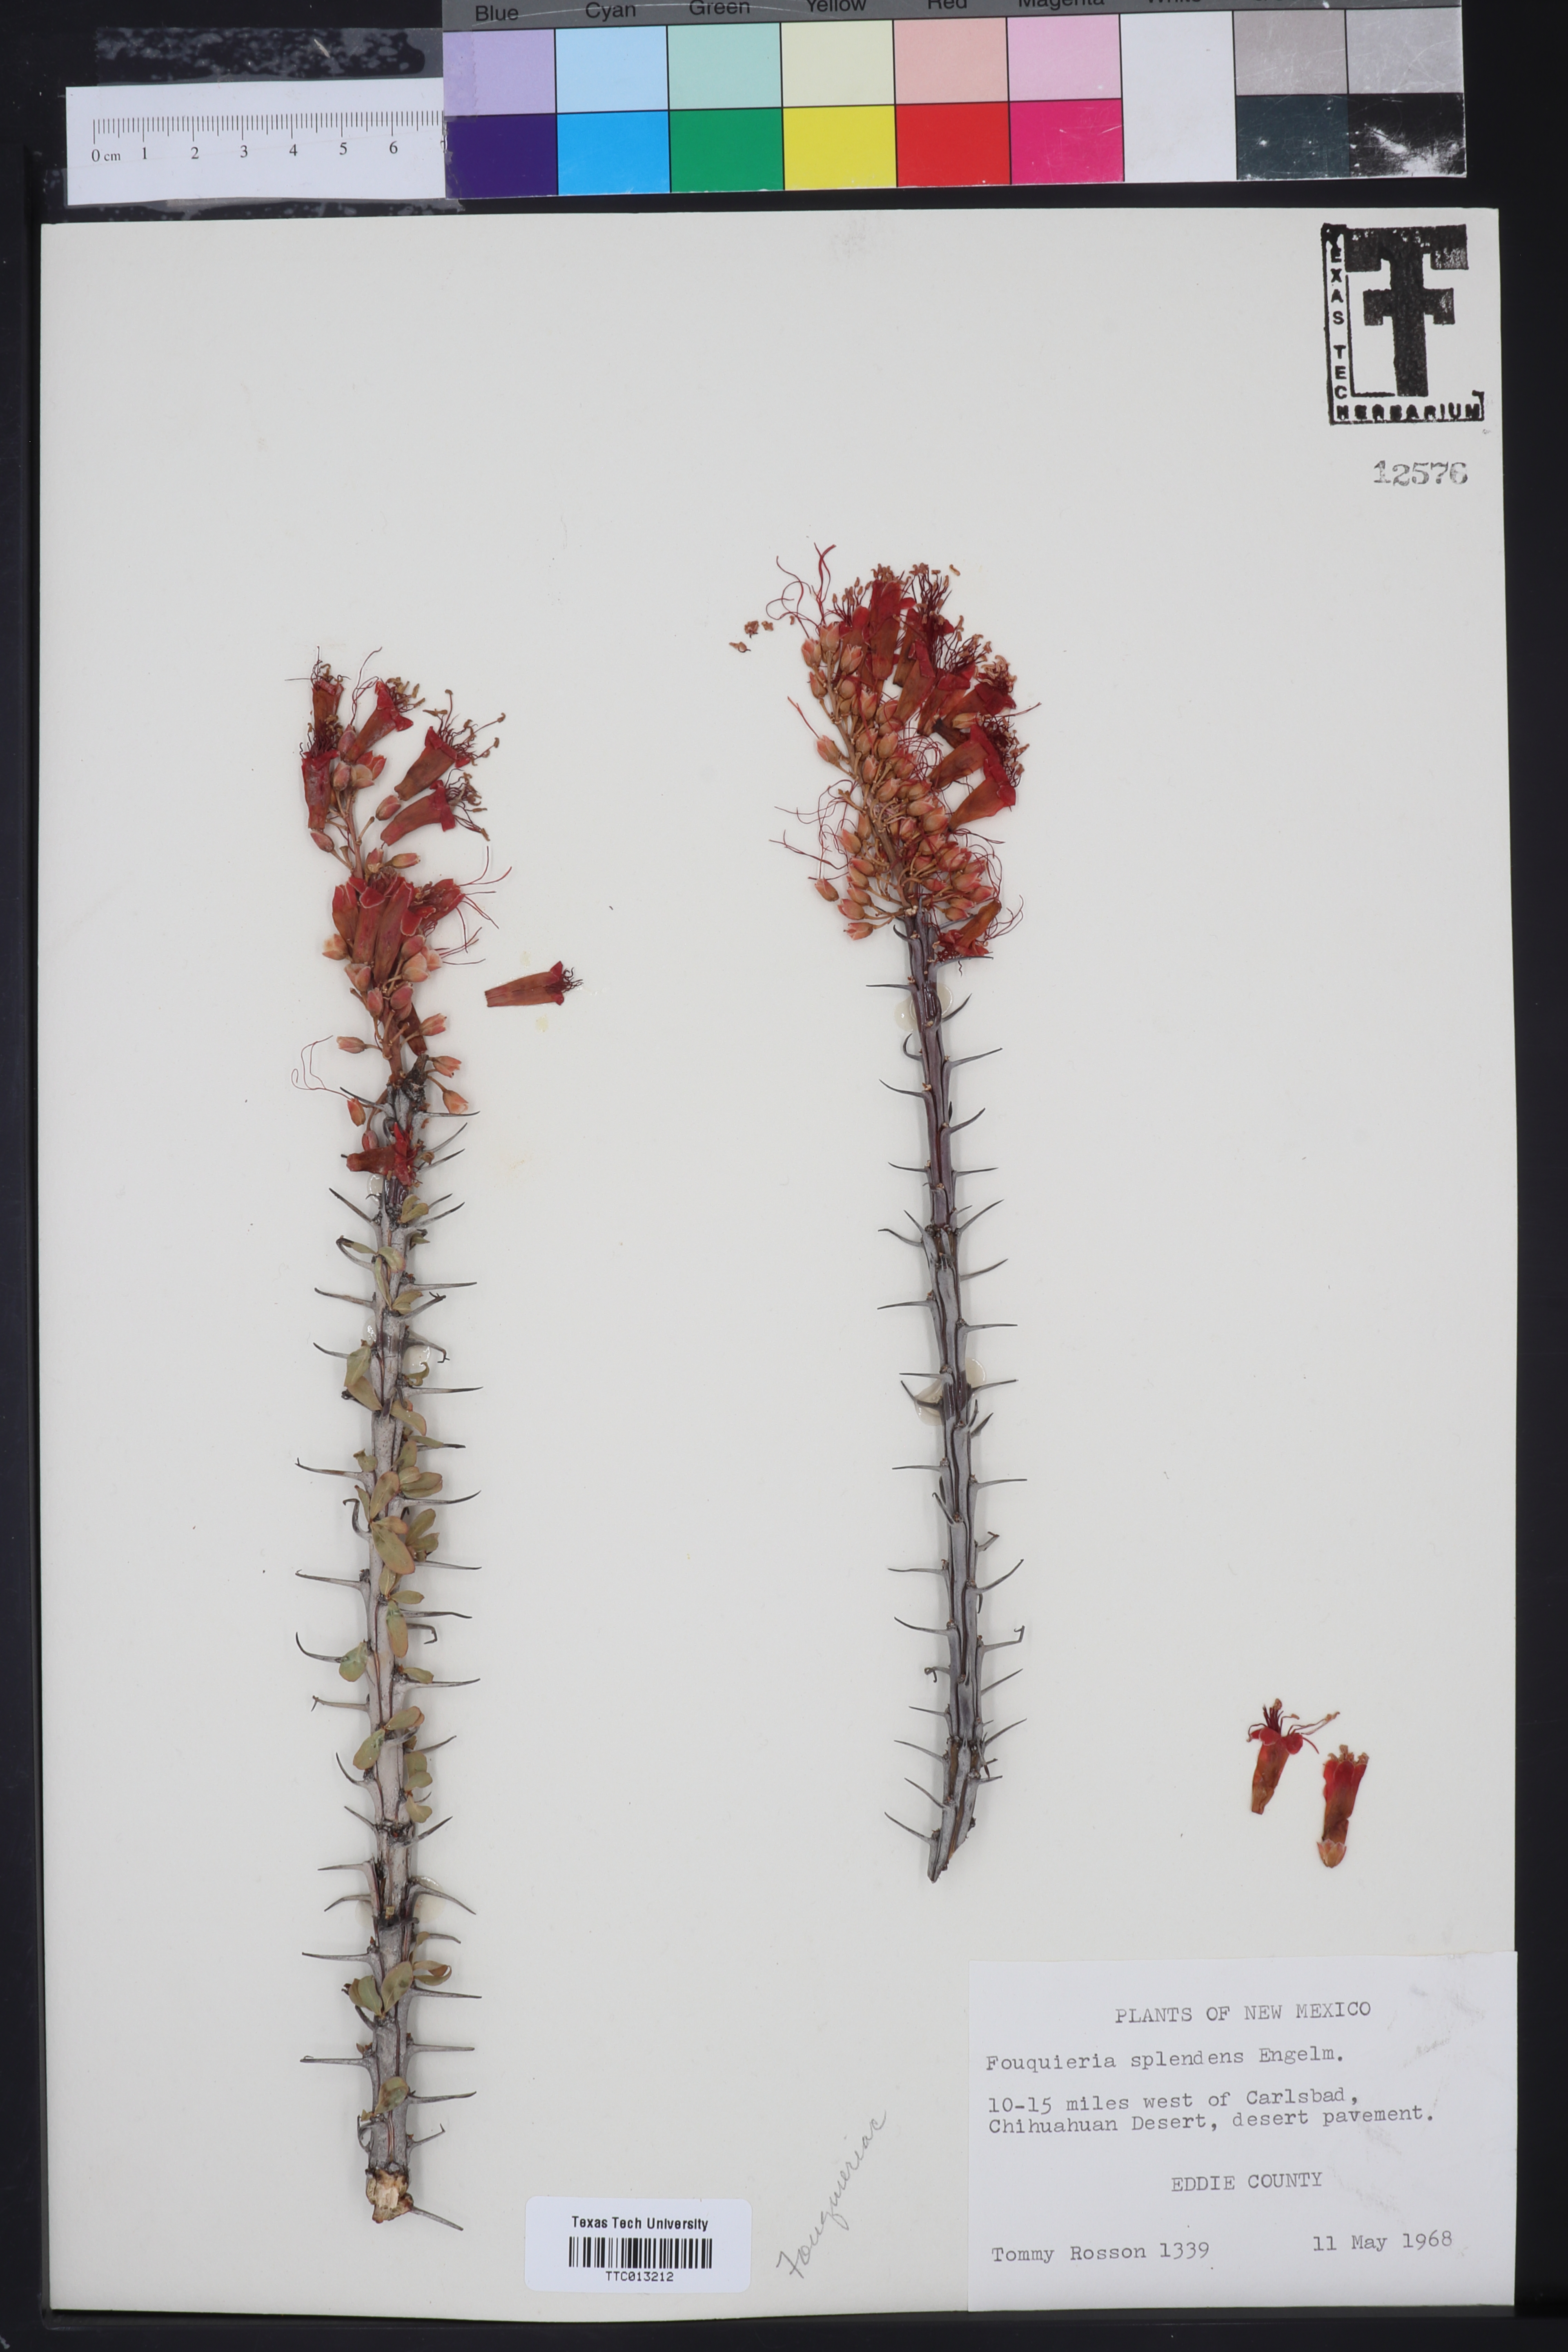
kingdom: Plantae
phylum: Tracheophyta
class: Magnoliopsida
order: Ericales
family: Fouquieriaceae
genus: Fouquieria
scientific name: Fouquieria splendens
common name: Vine-cactus
